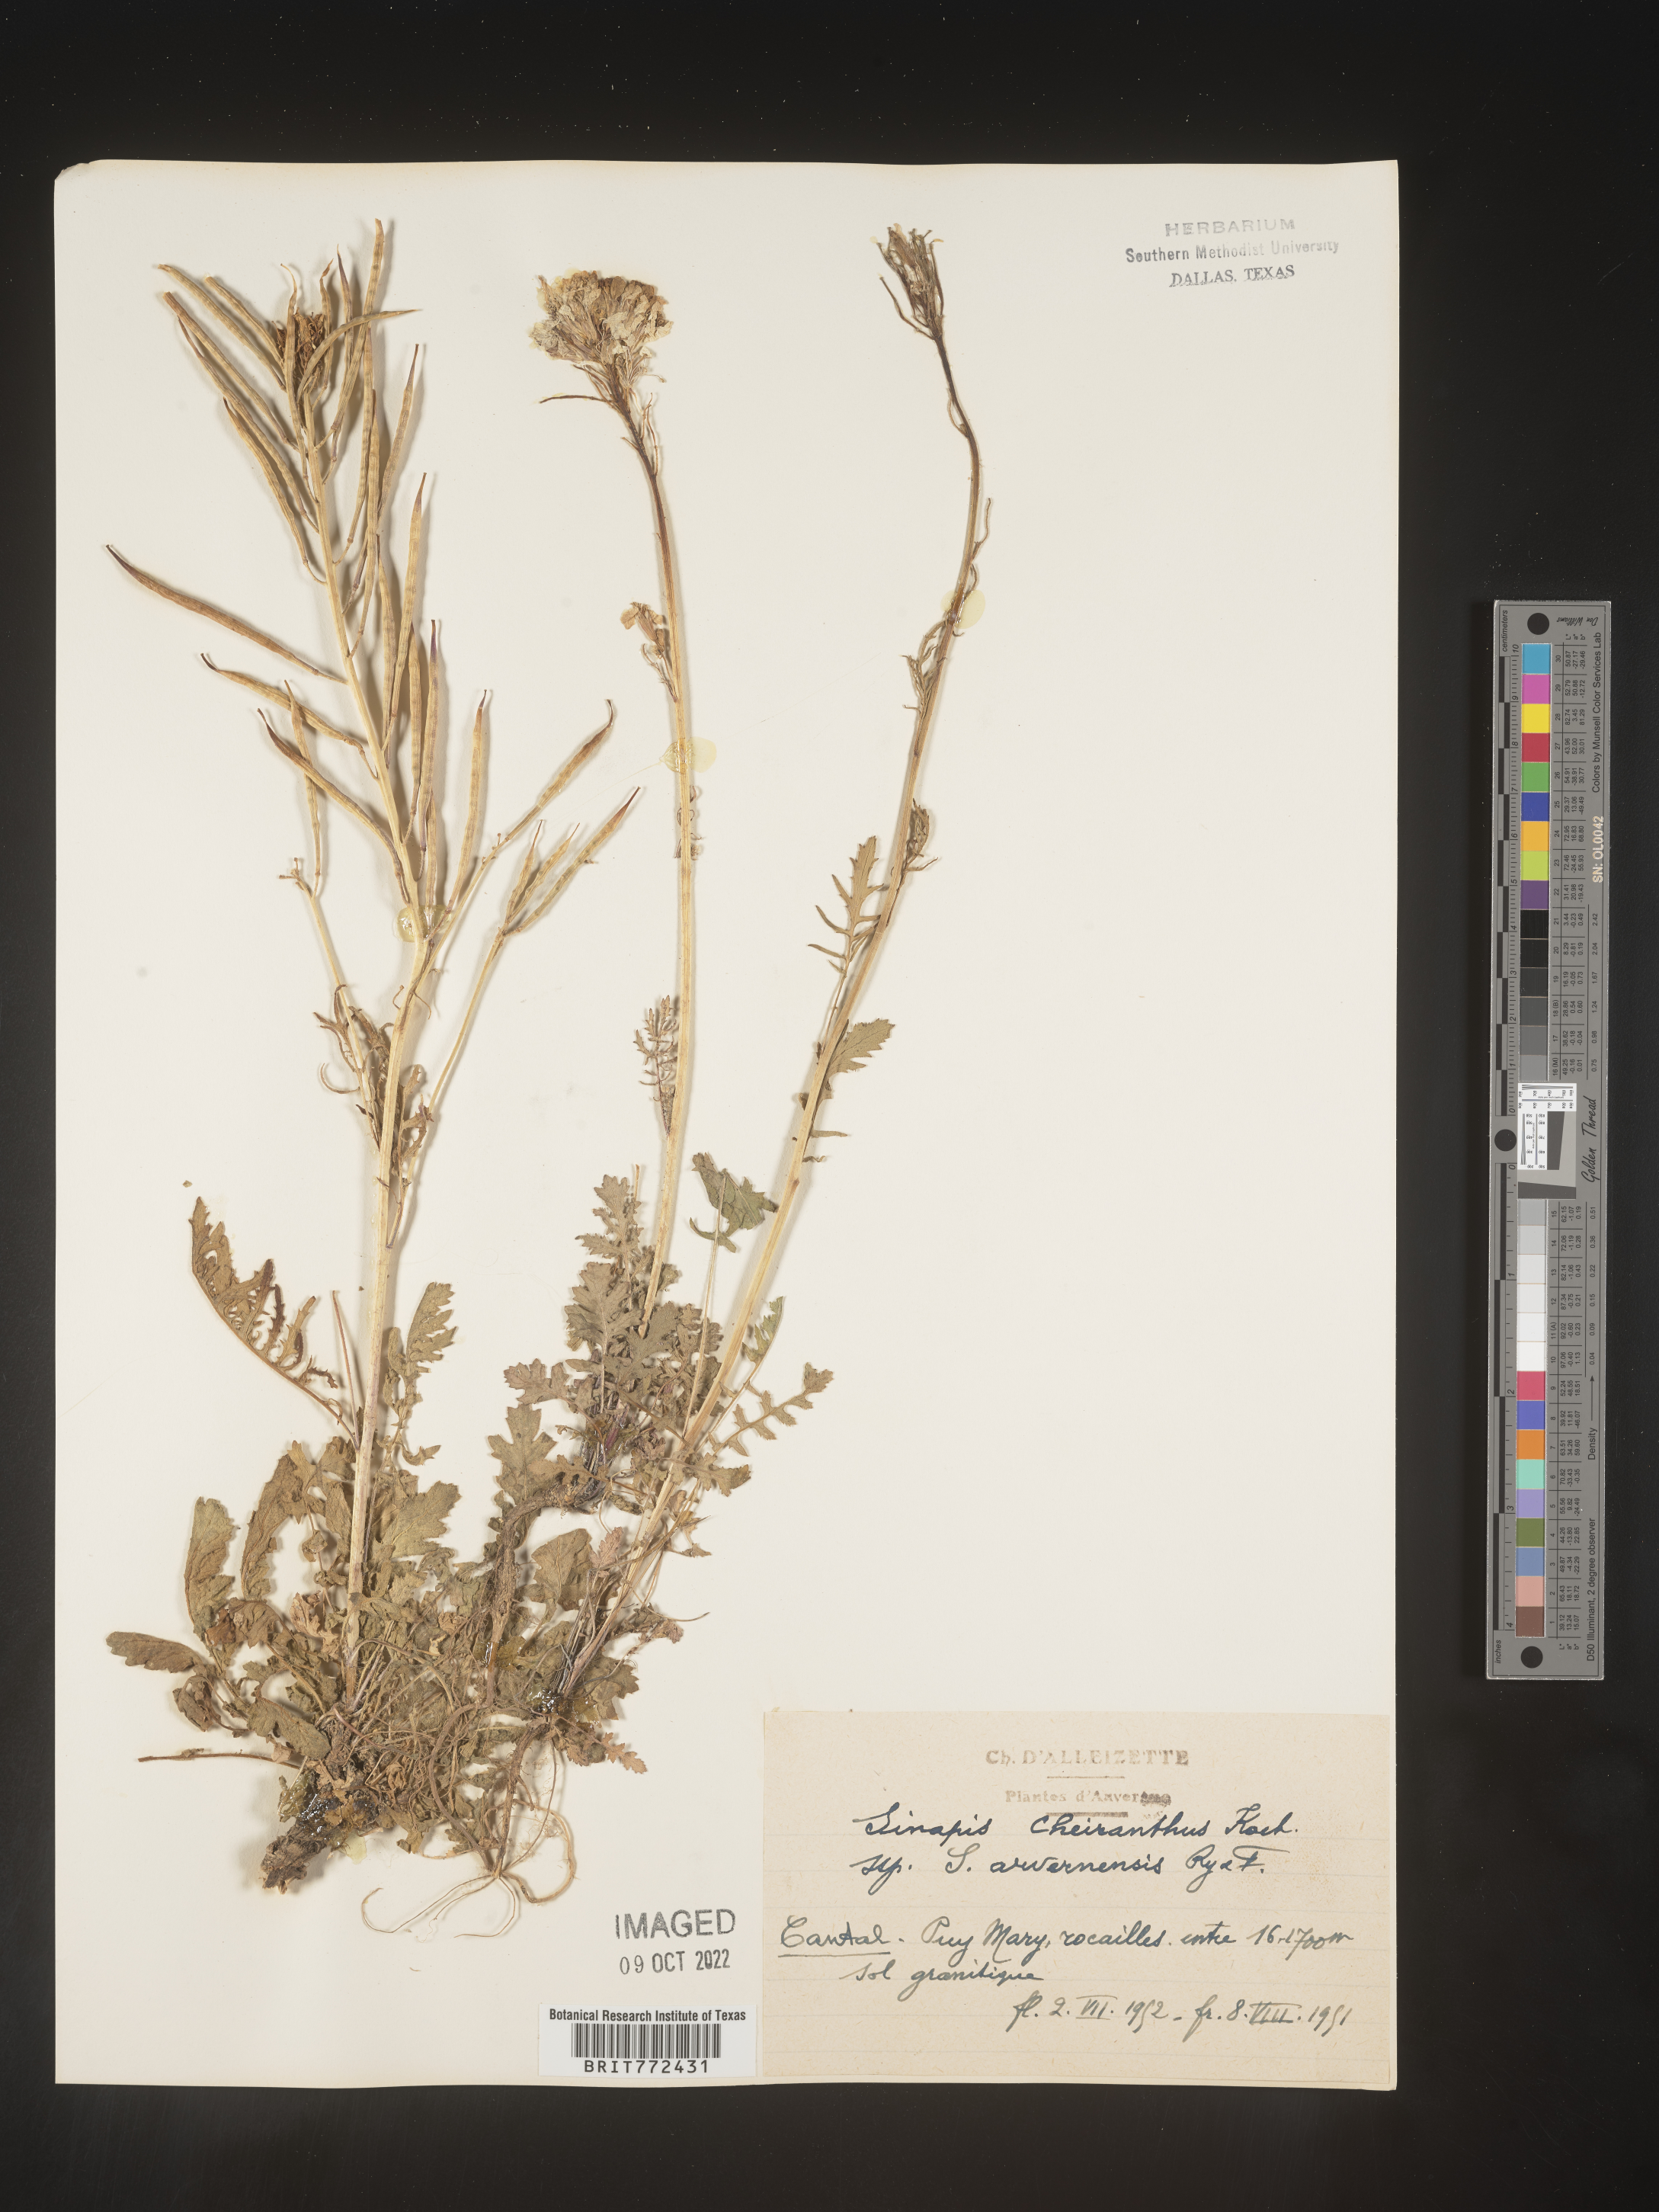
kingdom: Plantae
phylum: Tracheophyta
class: Magnoliopsida
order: Brassicales
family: Brassicaceae
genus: Brassica
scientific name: Brassica
